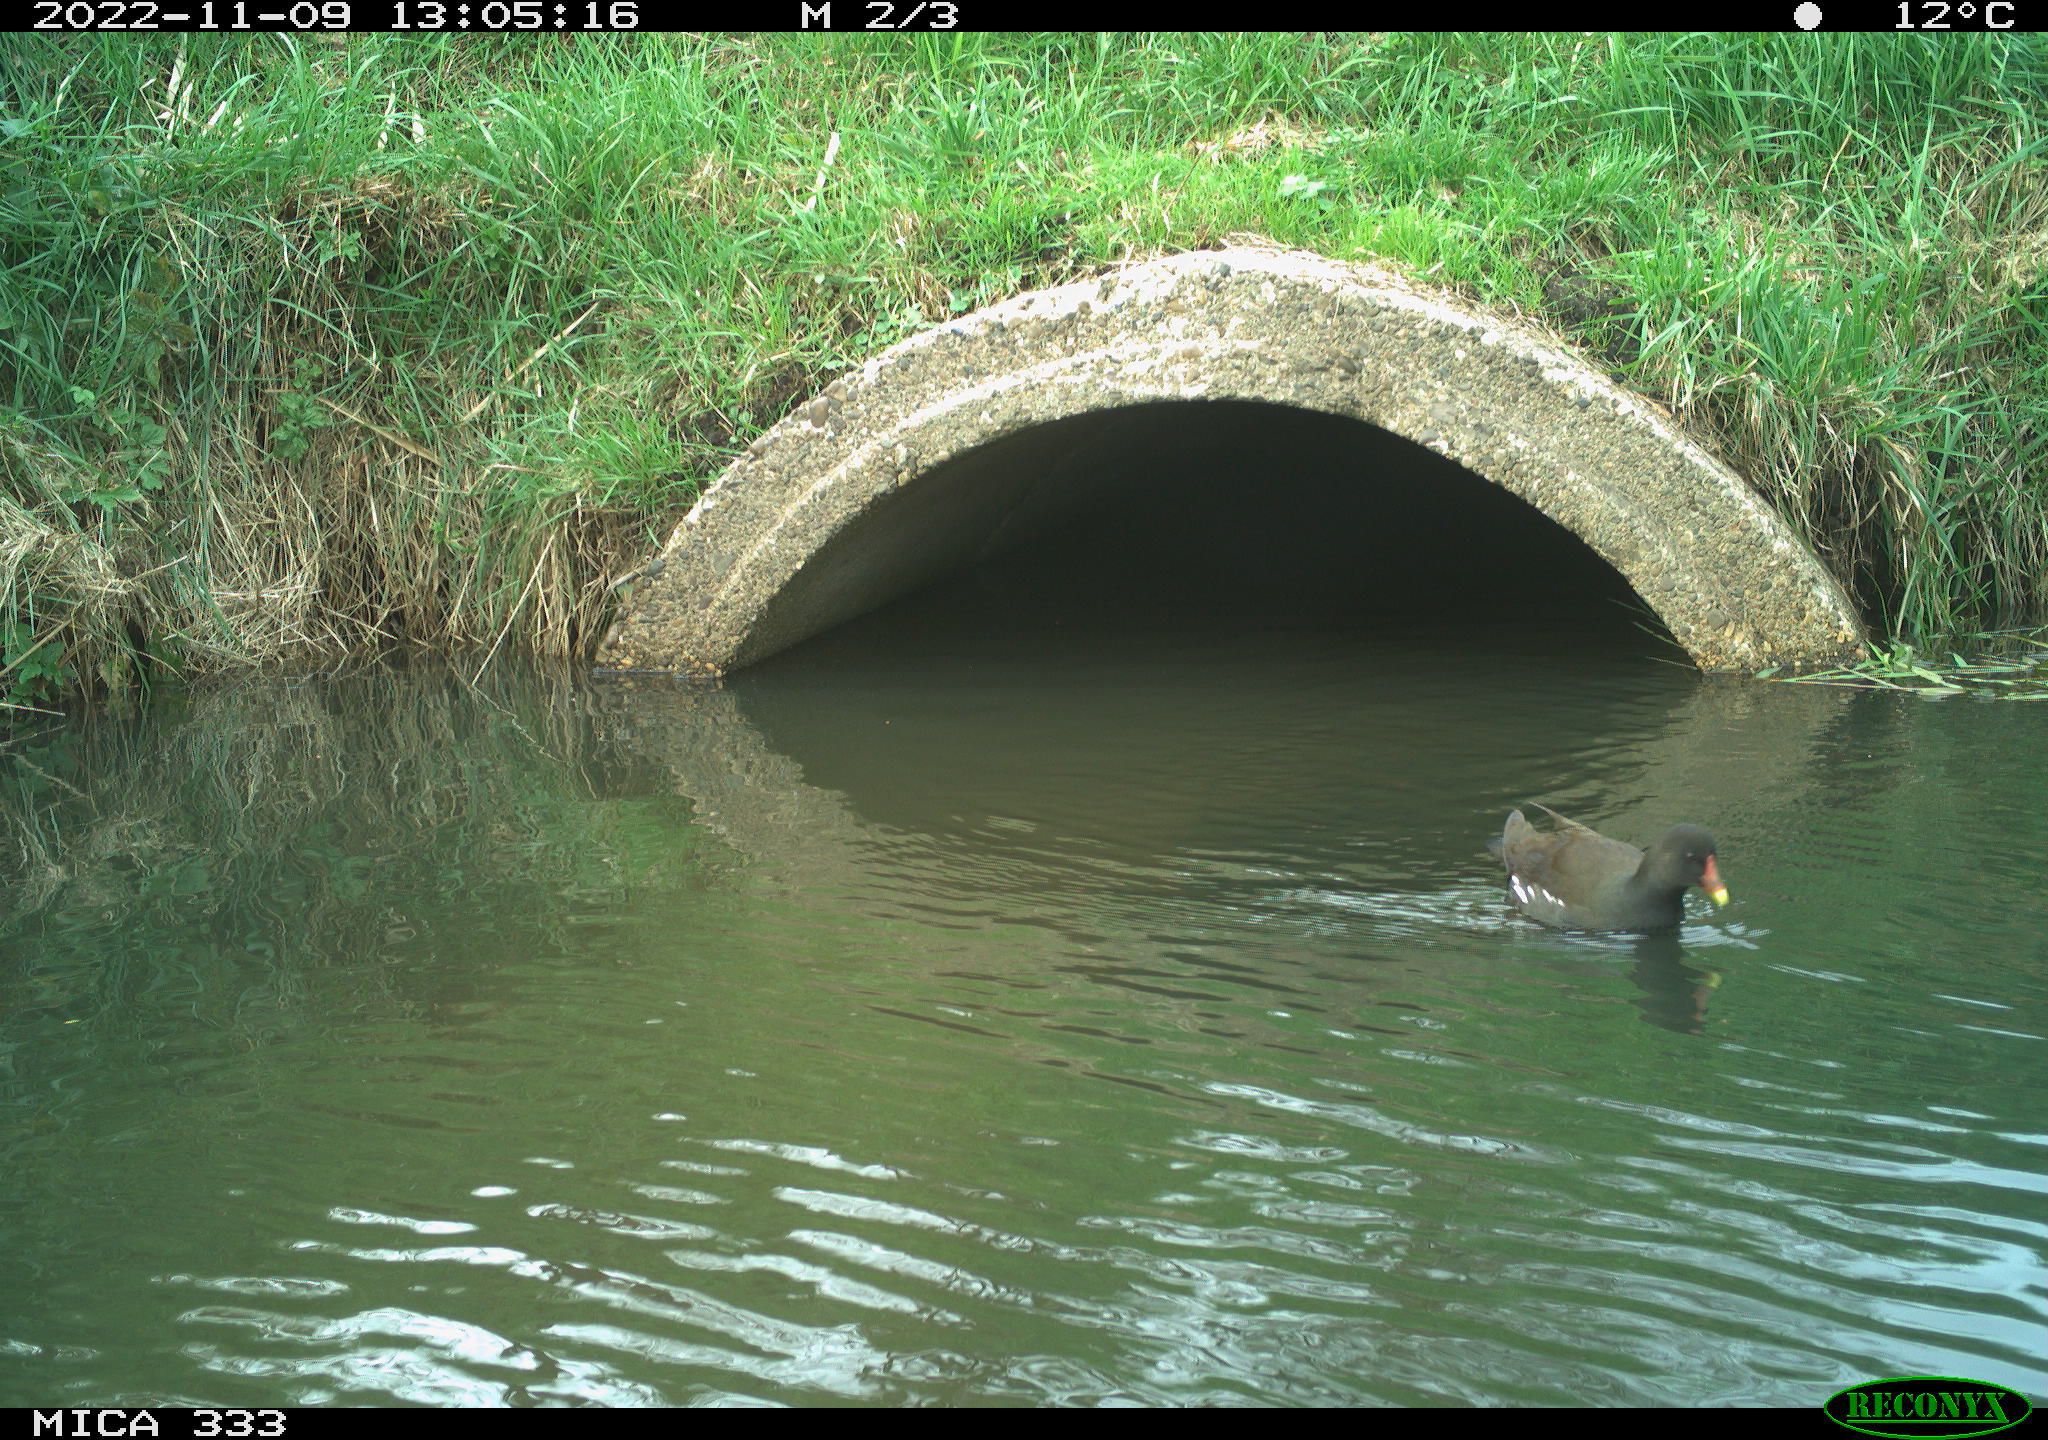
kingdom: Animalia
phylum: Chordata
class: Aves
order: Gruiformes
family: Rallidae
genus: Gallinula
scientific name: Gallinula chloropus
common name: Common moorhen
